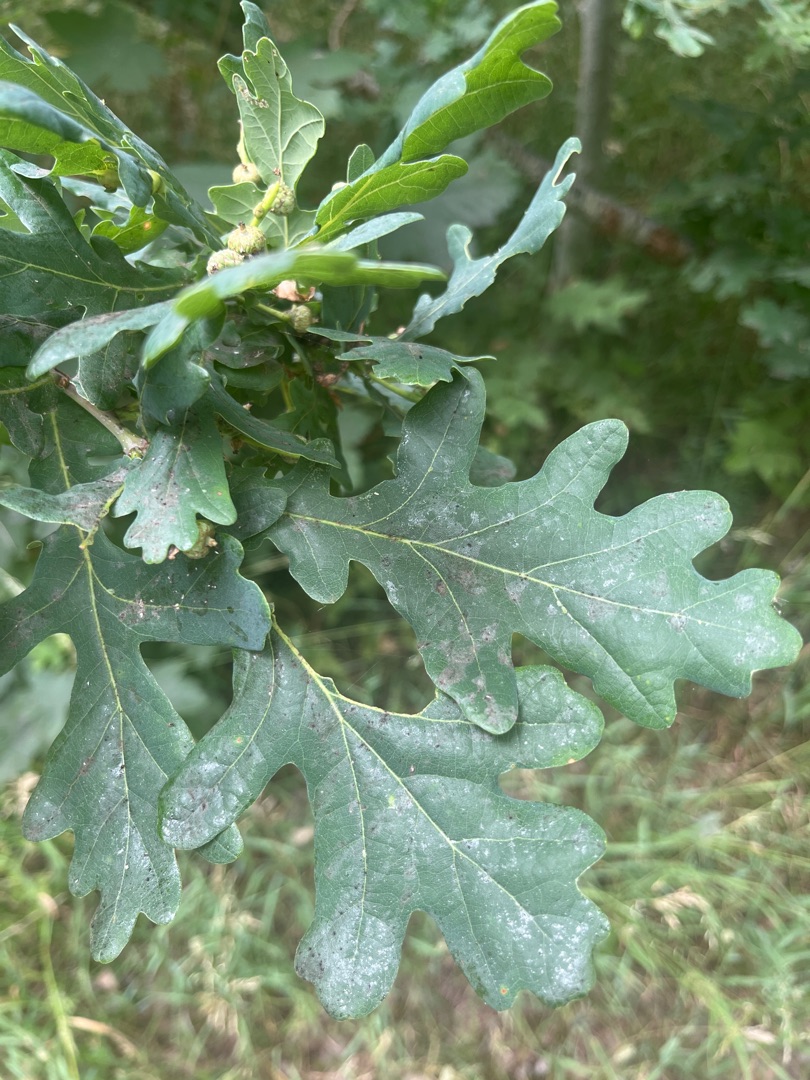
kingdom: Plantae
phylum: Tracheophyta
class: Magnoliopsida
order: Fagales
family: Fagaceae
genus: Quercus
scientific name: Quercus robur
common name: Stilk-eg/almindelig eg
